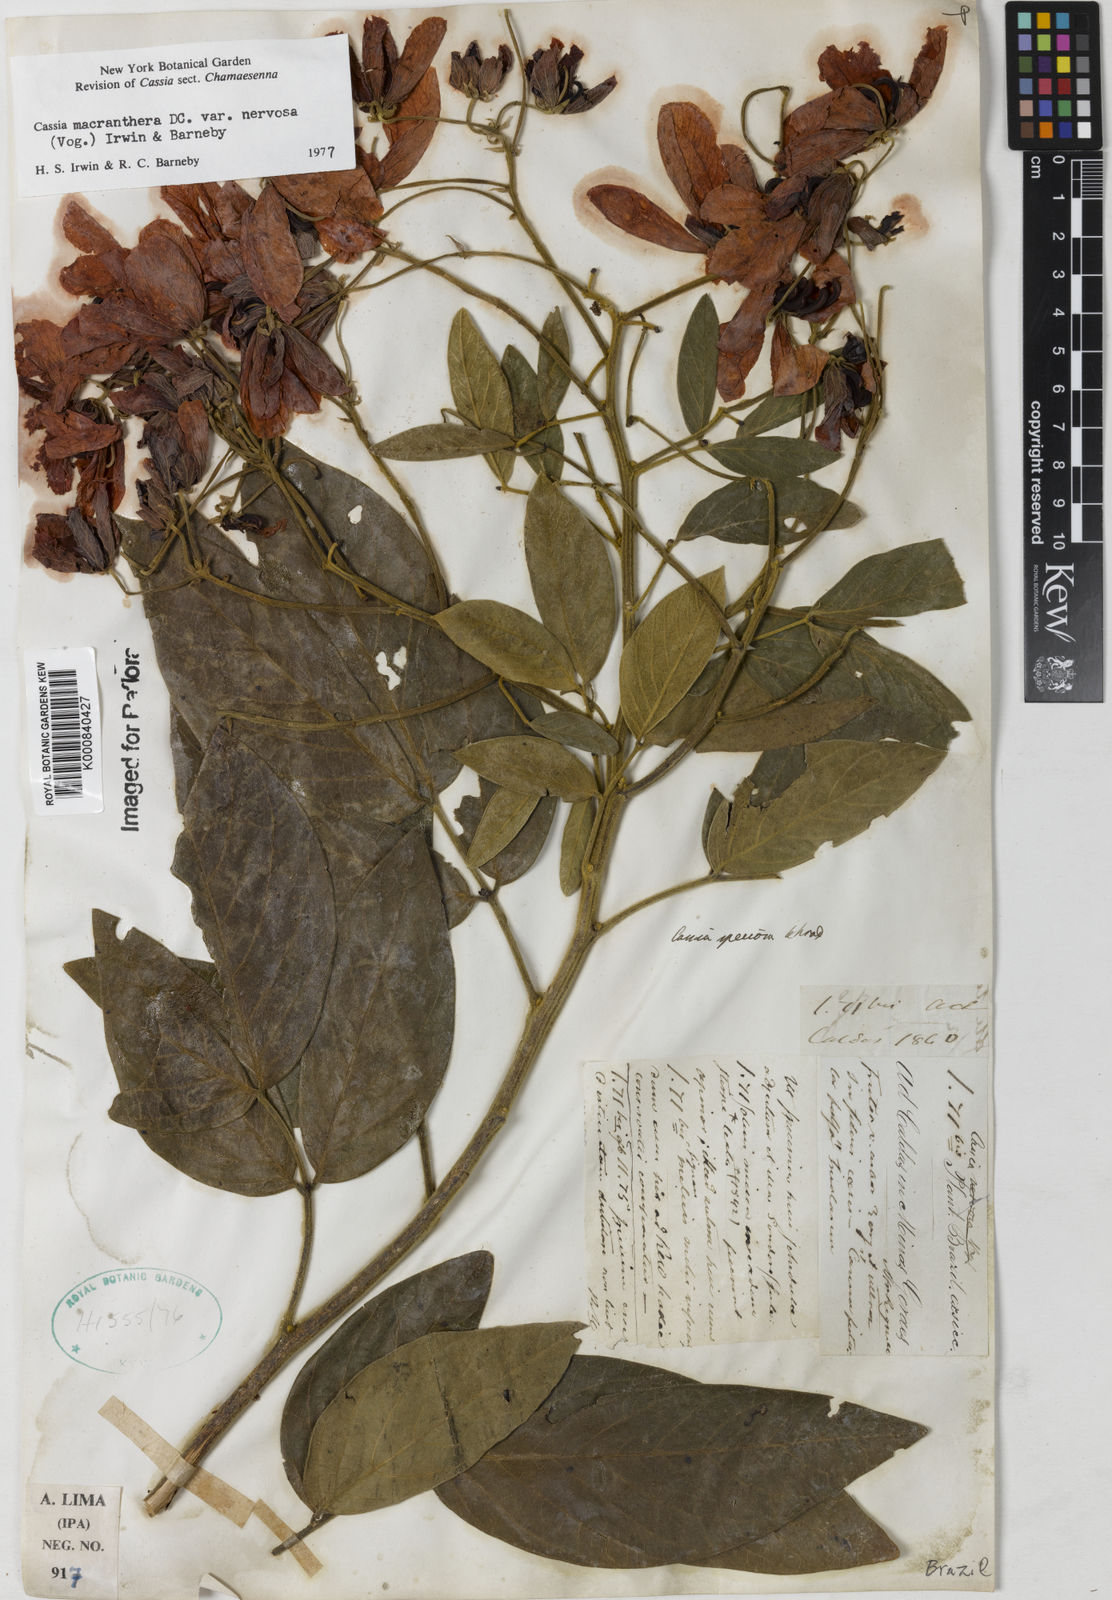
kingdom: Plantae
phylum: Tracheophyta
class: Magnoliopsida
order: Fabales
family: Fabaceae
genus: Senna
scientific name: Senna macranthera
